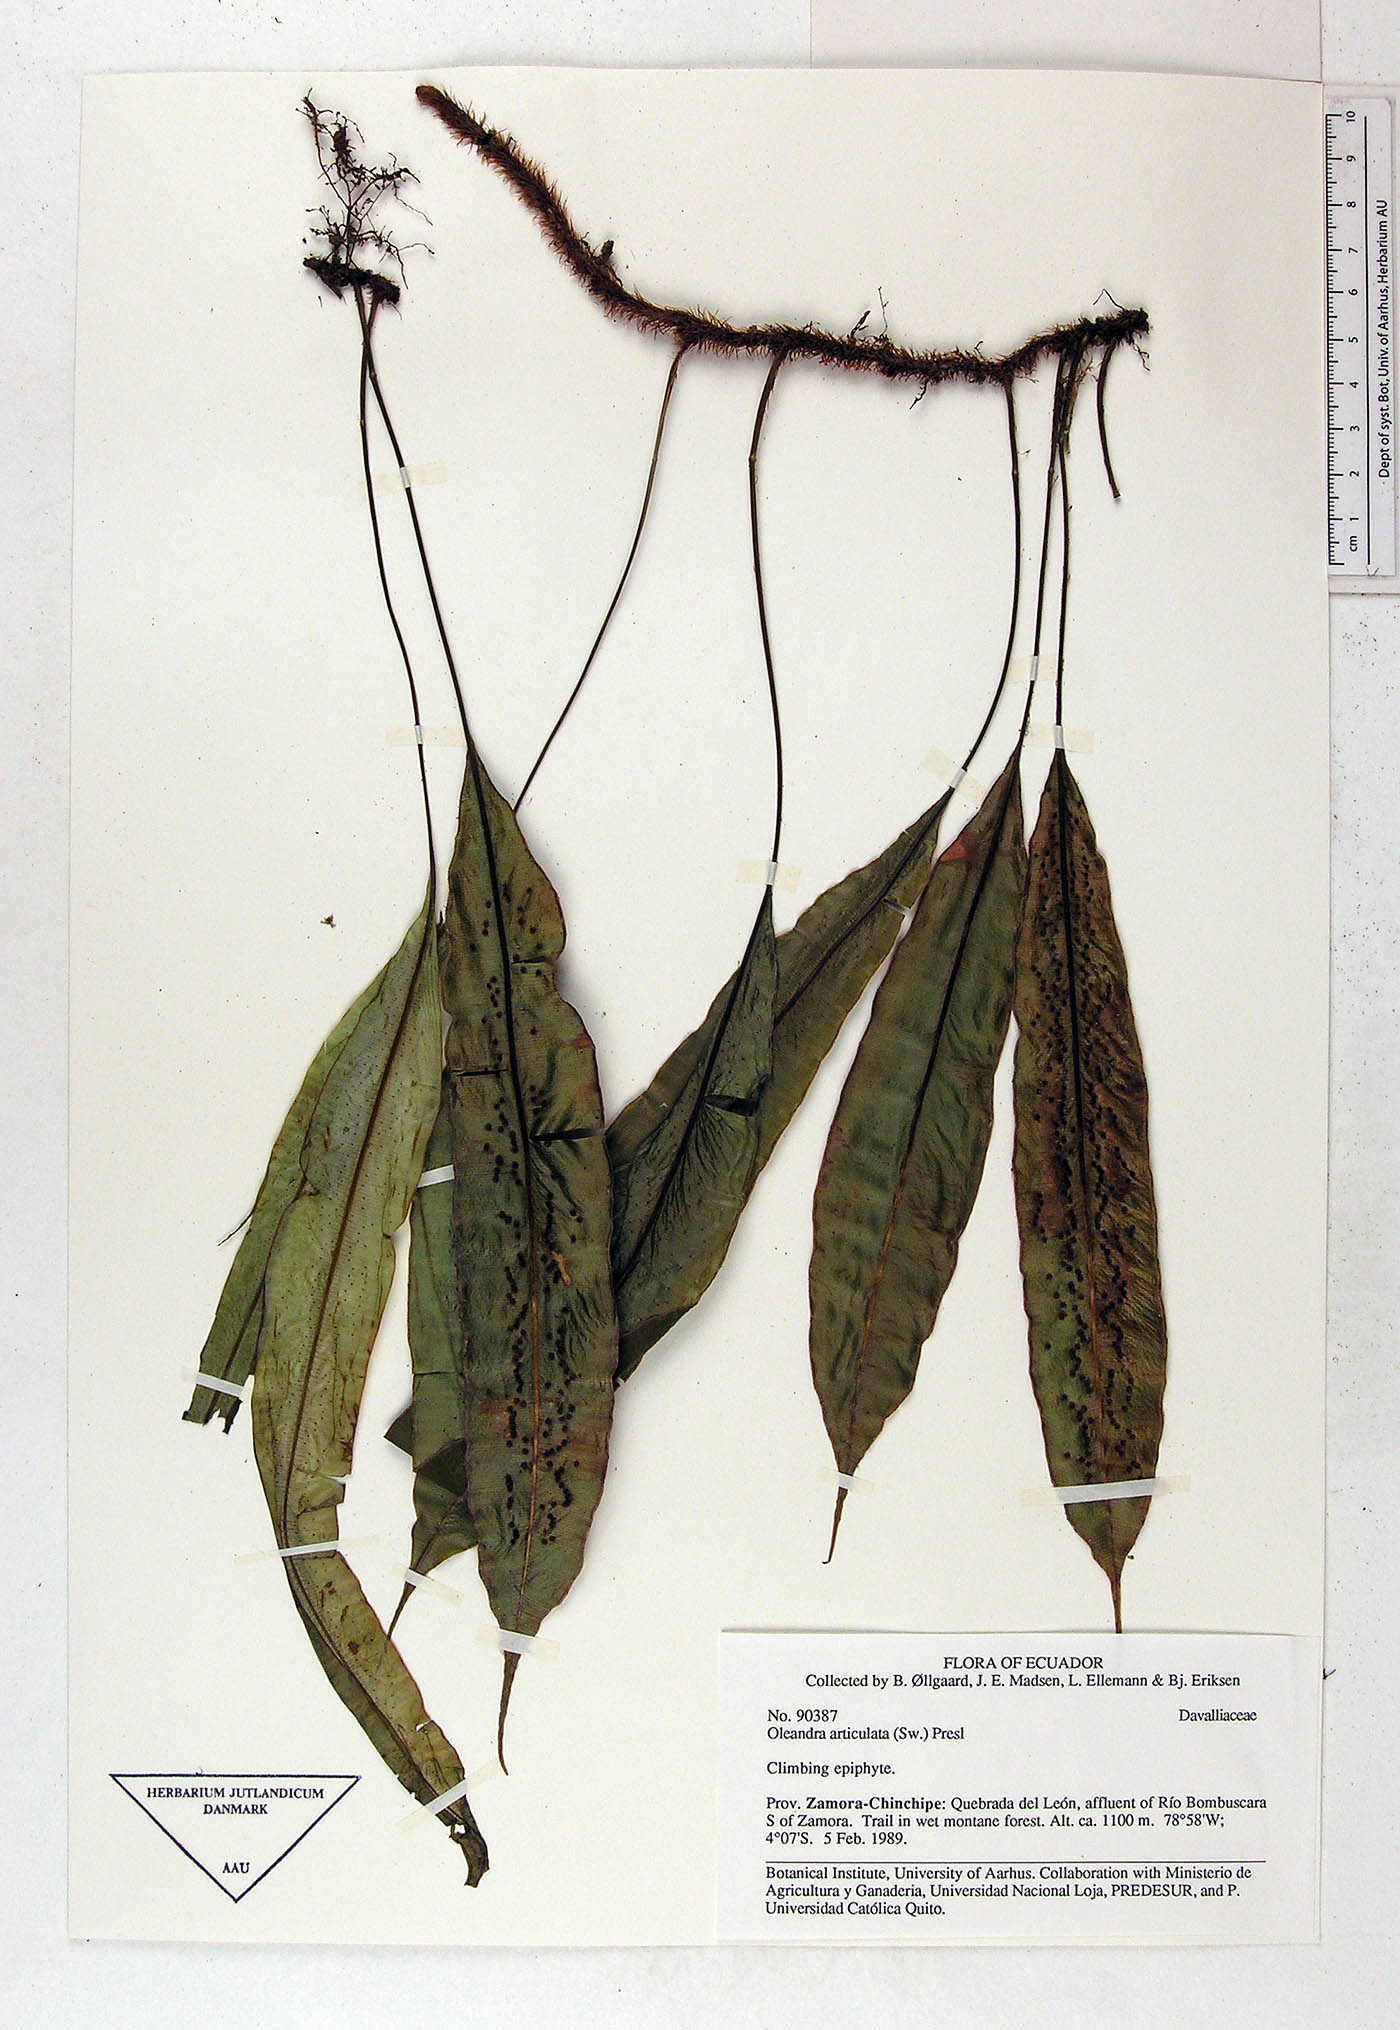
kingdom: Plantae
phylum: Tracheophyta
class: Polypodiopsida
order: Polypodiales
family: Oleandraceae
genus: Oleandra
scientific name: Oleandra
